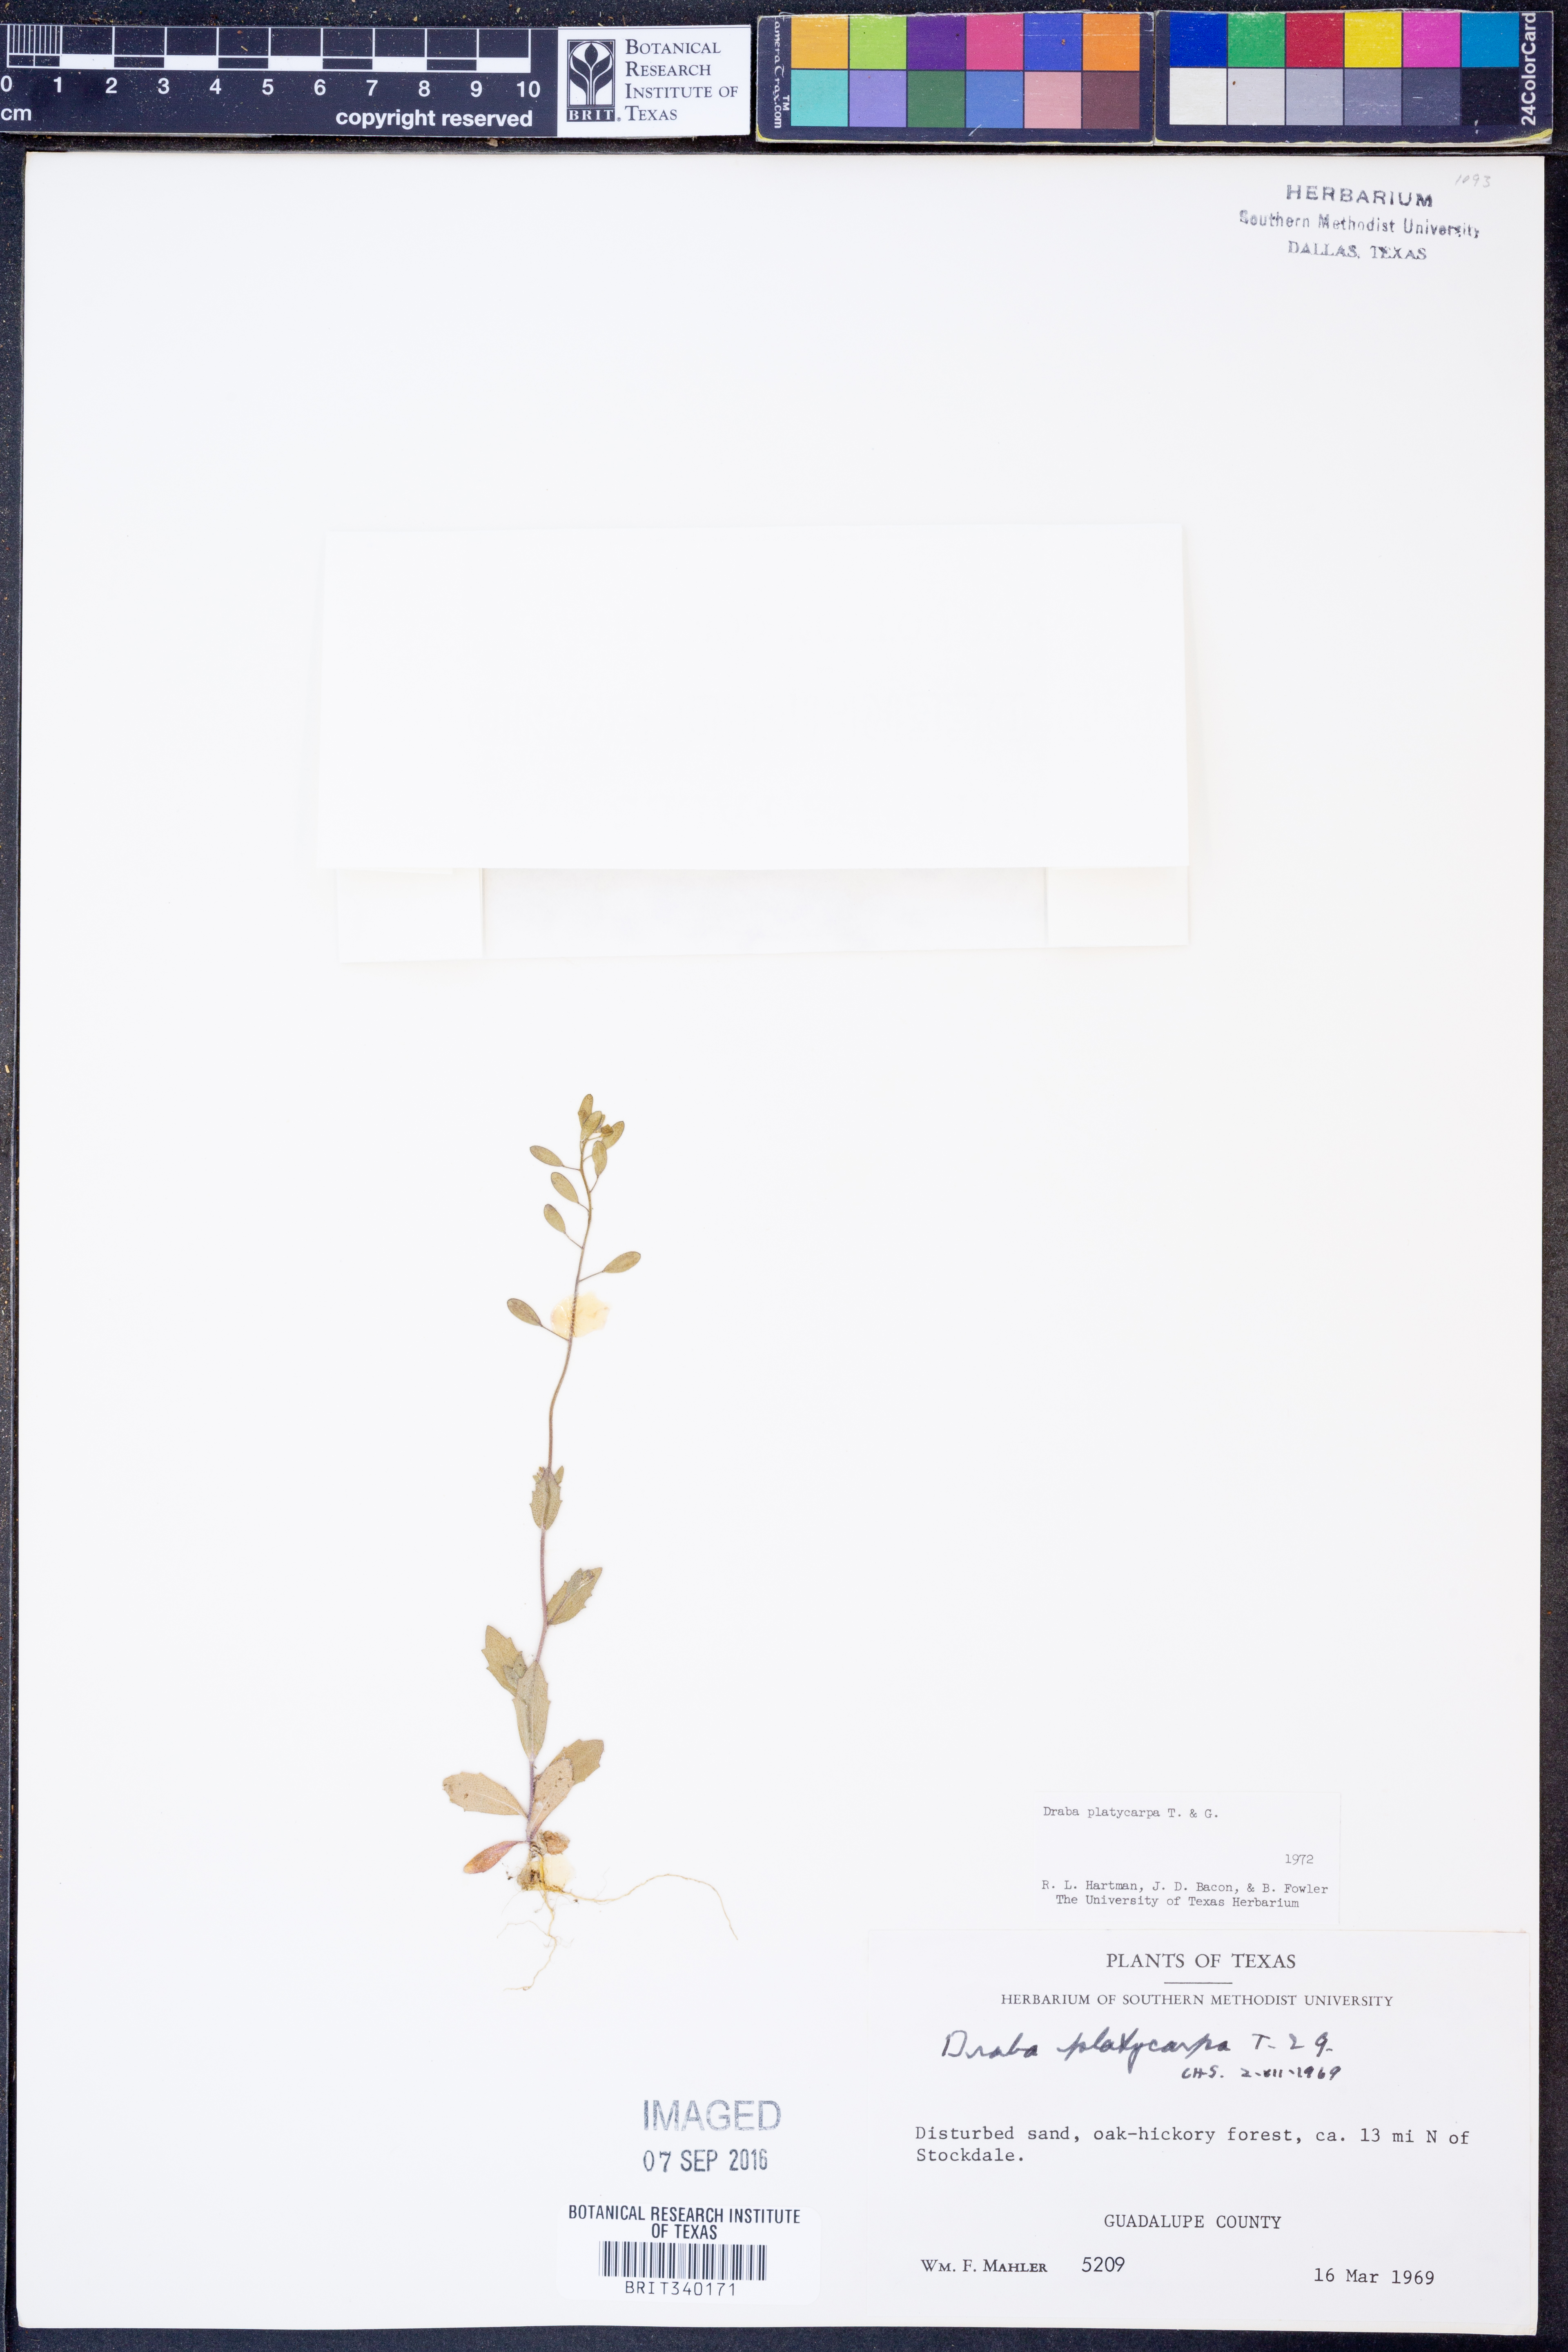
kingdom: Plantae
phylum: Tracheophyta
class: Magnoliopsida
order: Brassicales
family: Brassicaceae
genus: Tomostima
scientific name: Tomostima platycarpa
